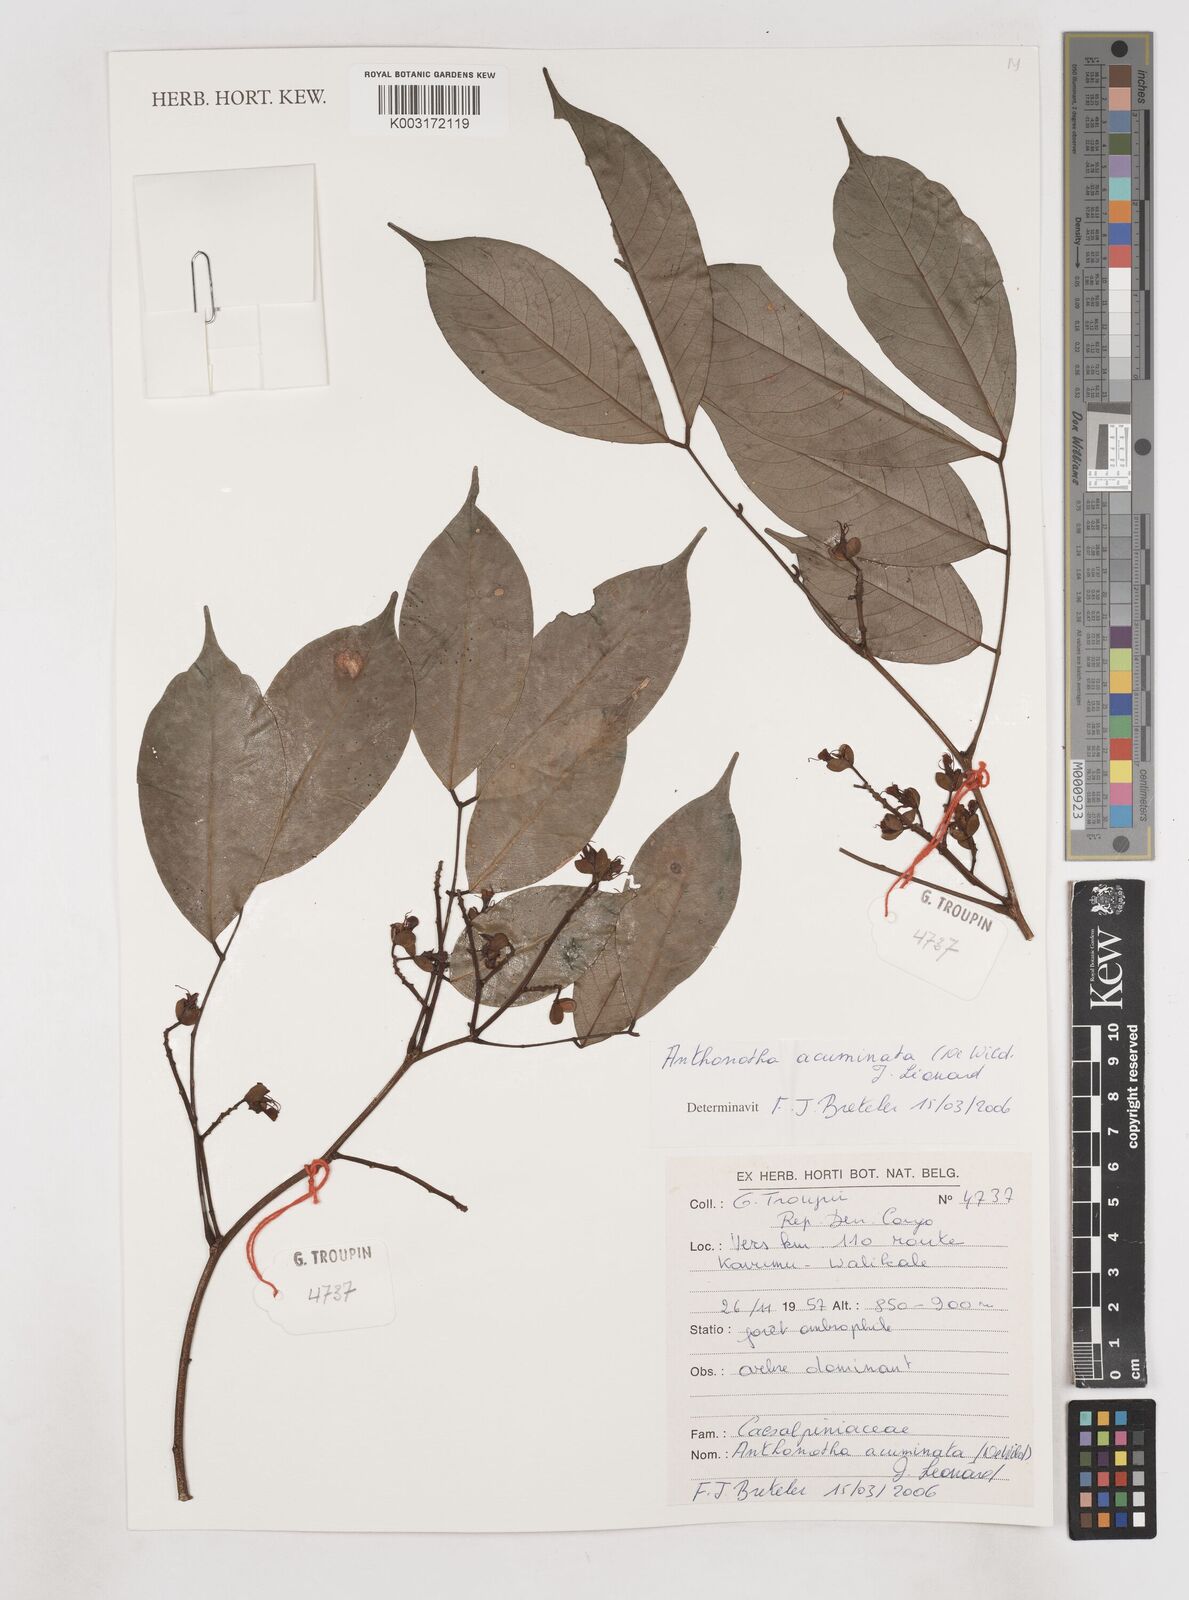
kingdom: Plantae
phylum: Tracheophyta
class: Magnoliopsida
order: Fabales
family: Fabaceae
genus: Anthonotha
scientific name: Anthonotha acuminata
